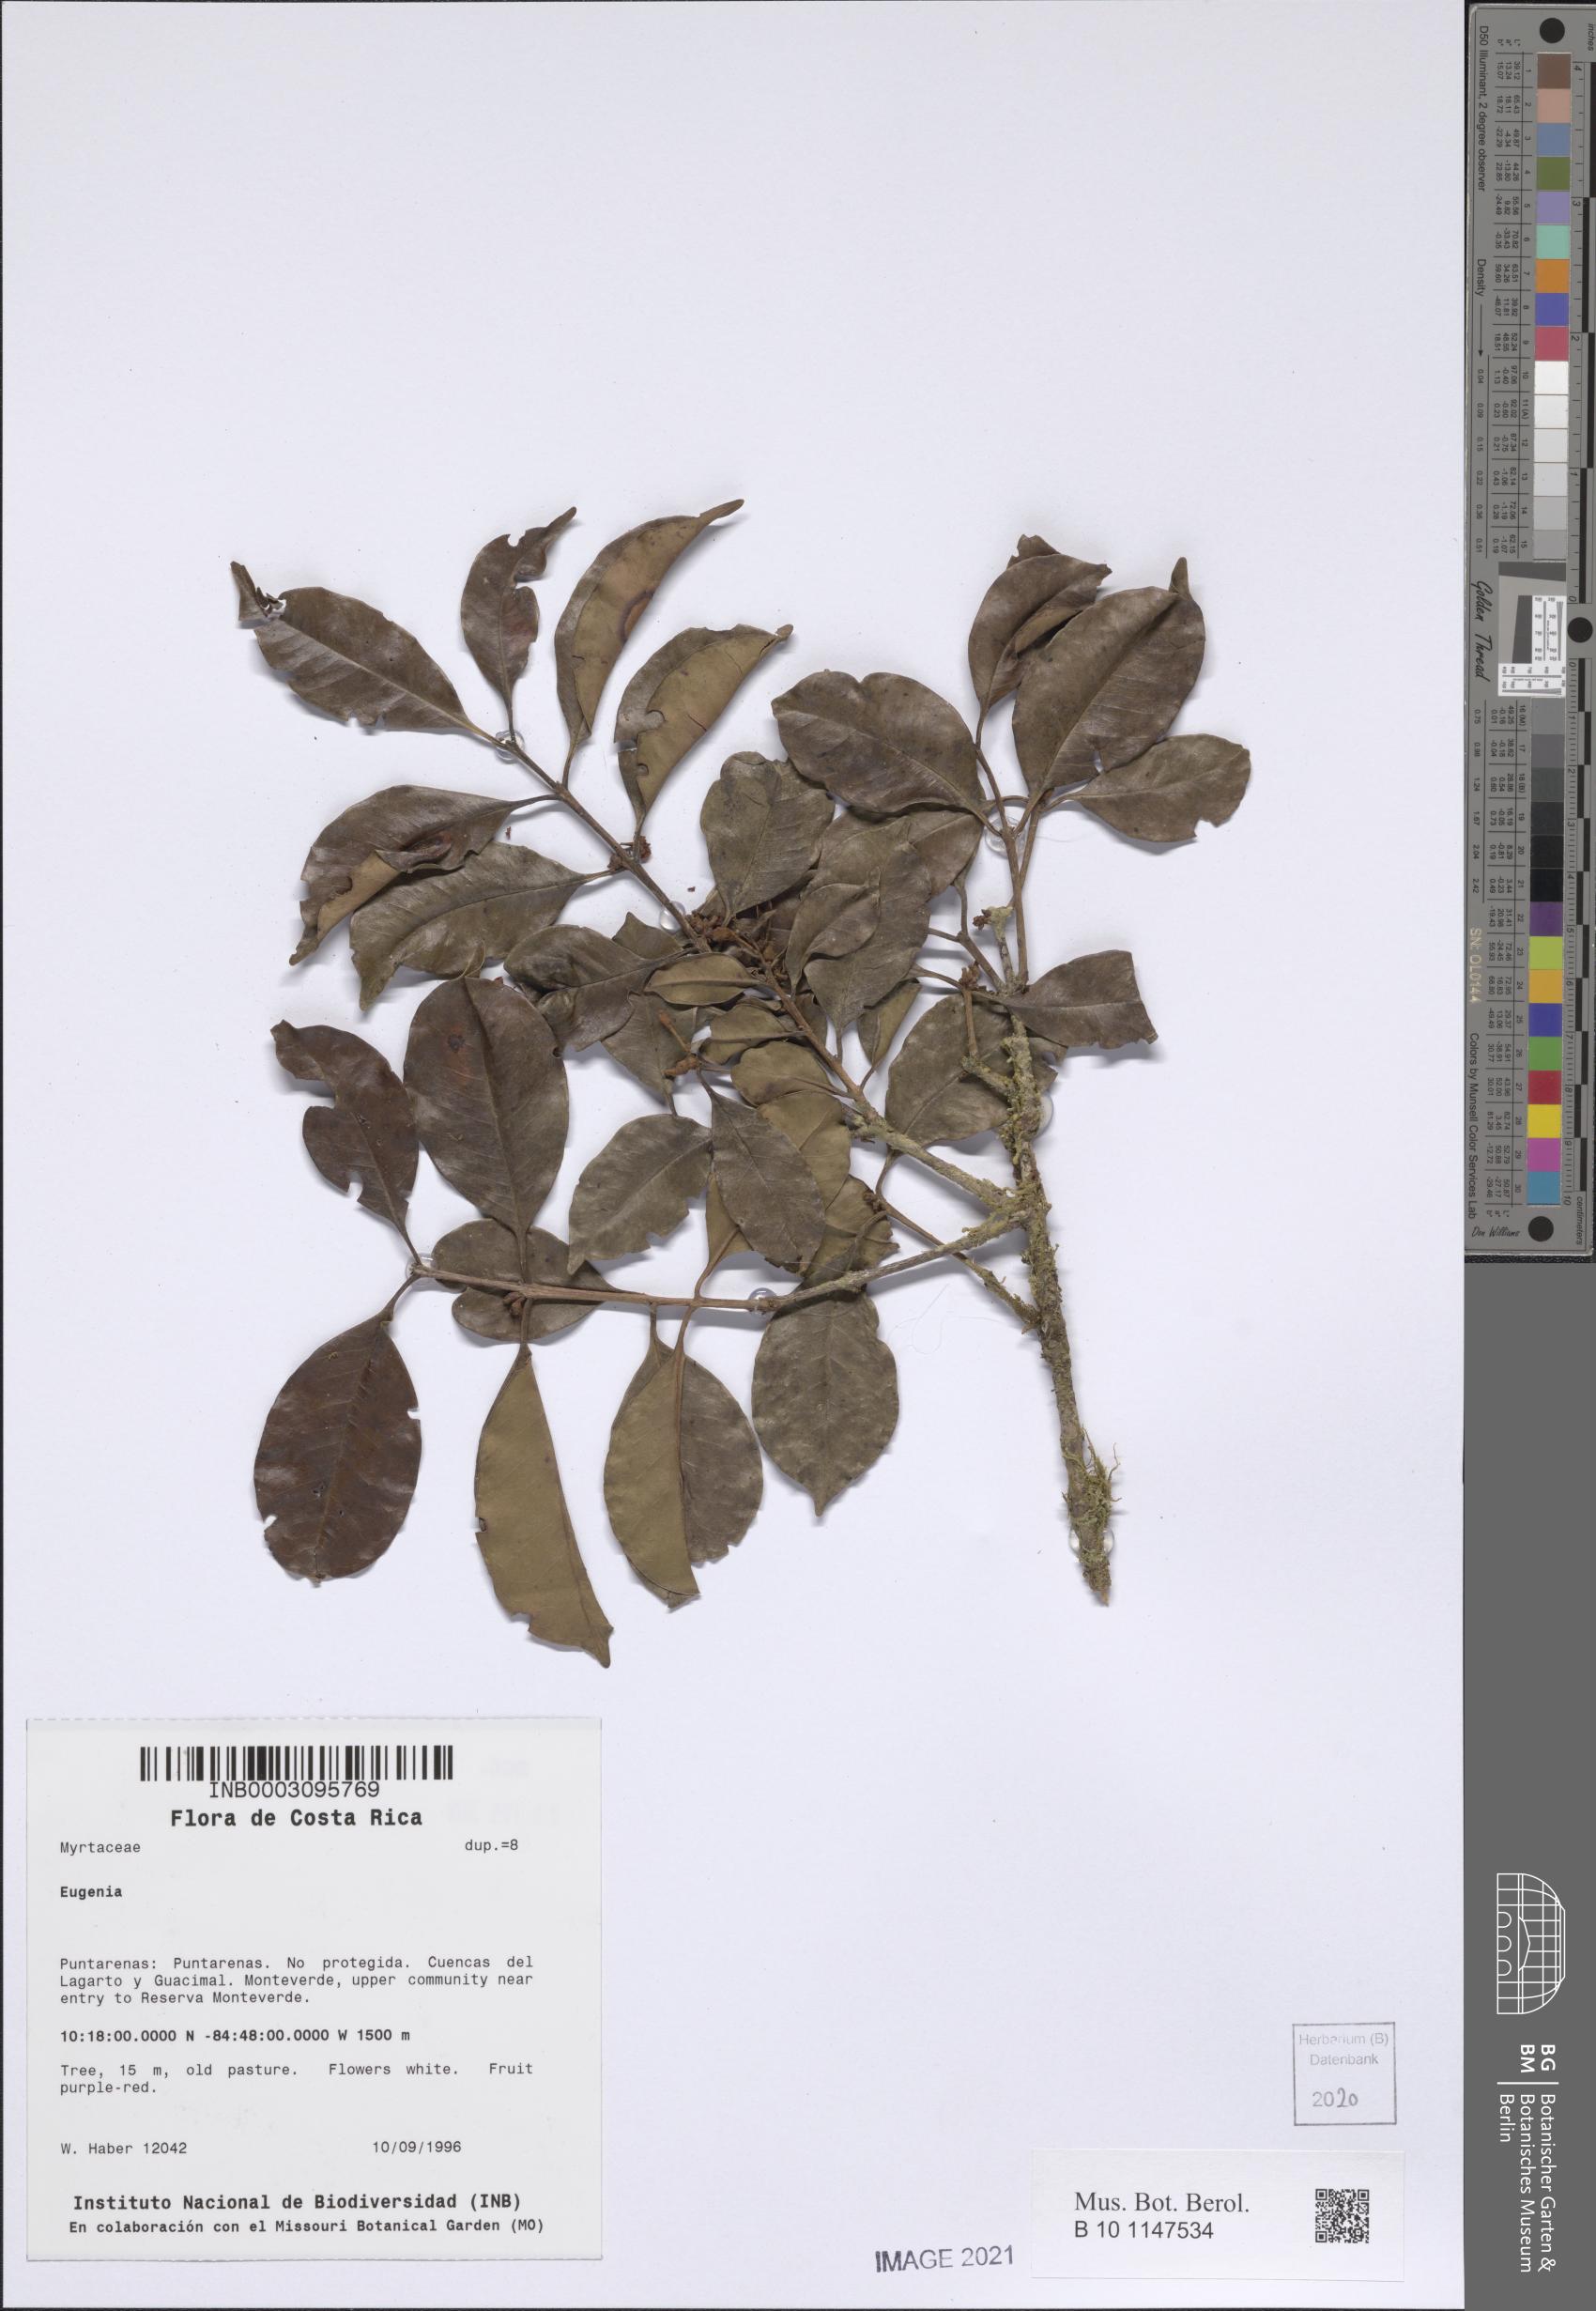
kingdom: Plantae
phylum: Tracheophyta
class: Magnoliopsida
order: Myrtales
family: Myrtaceae
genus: Eugenia
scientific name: Eugenia
